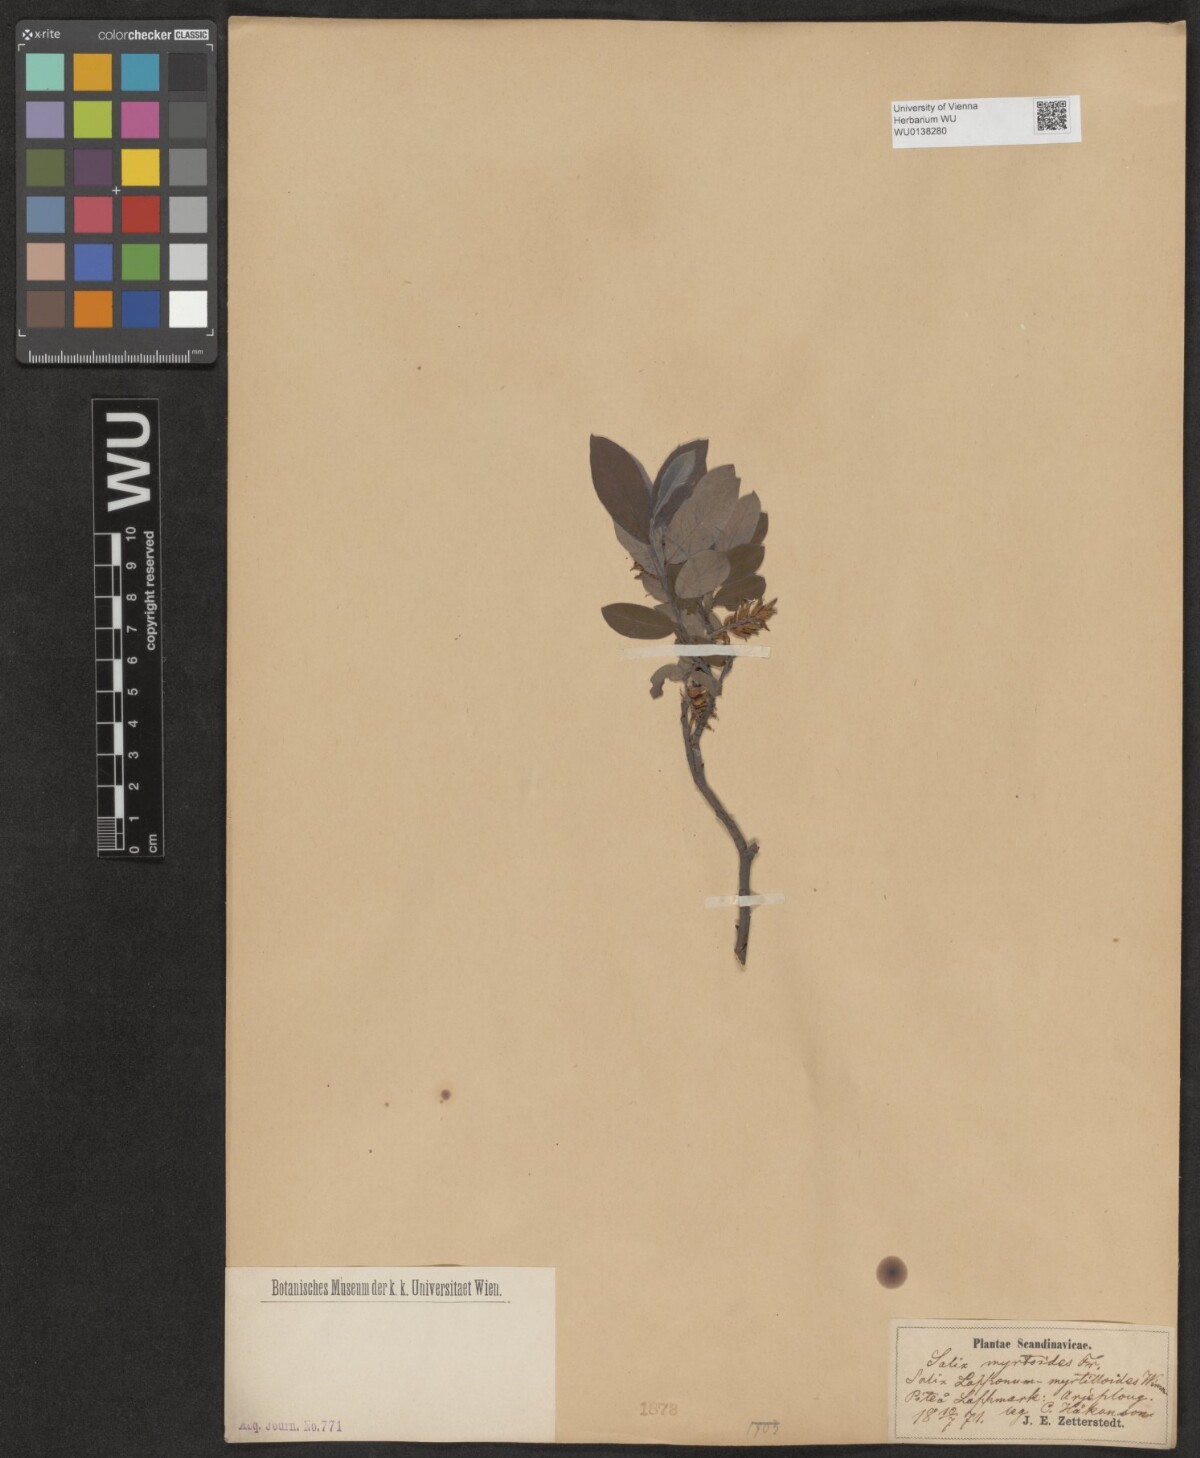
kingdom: Plantae
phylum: Tracheophyta
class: Magnoliopsida
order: Malpighiales
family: Salicaceae
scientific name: Salicaceae
